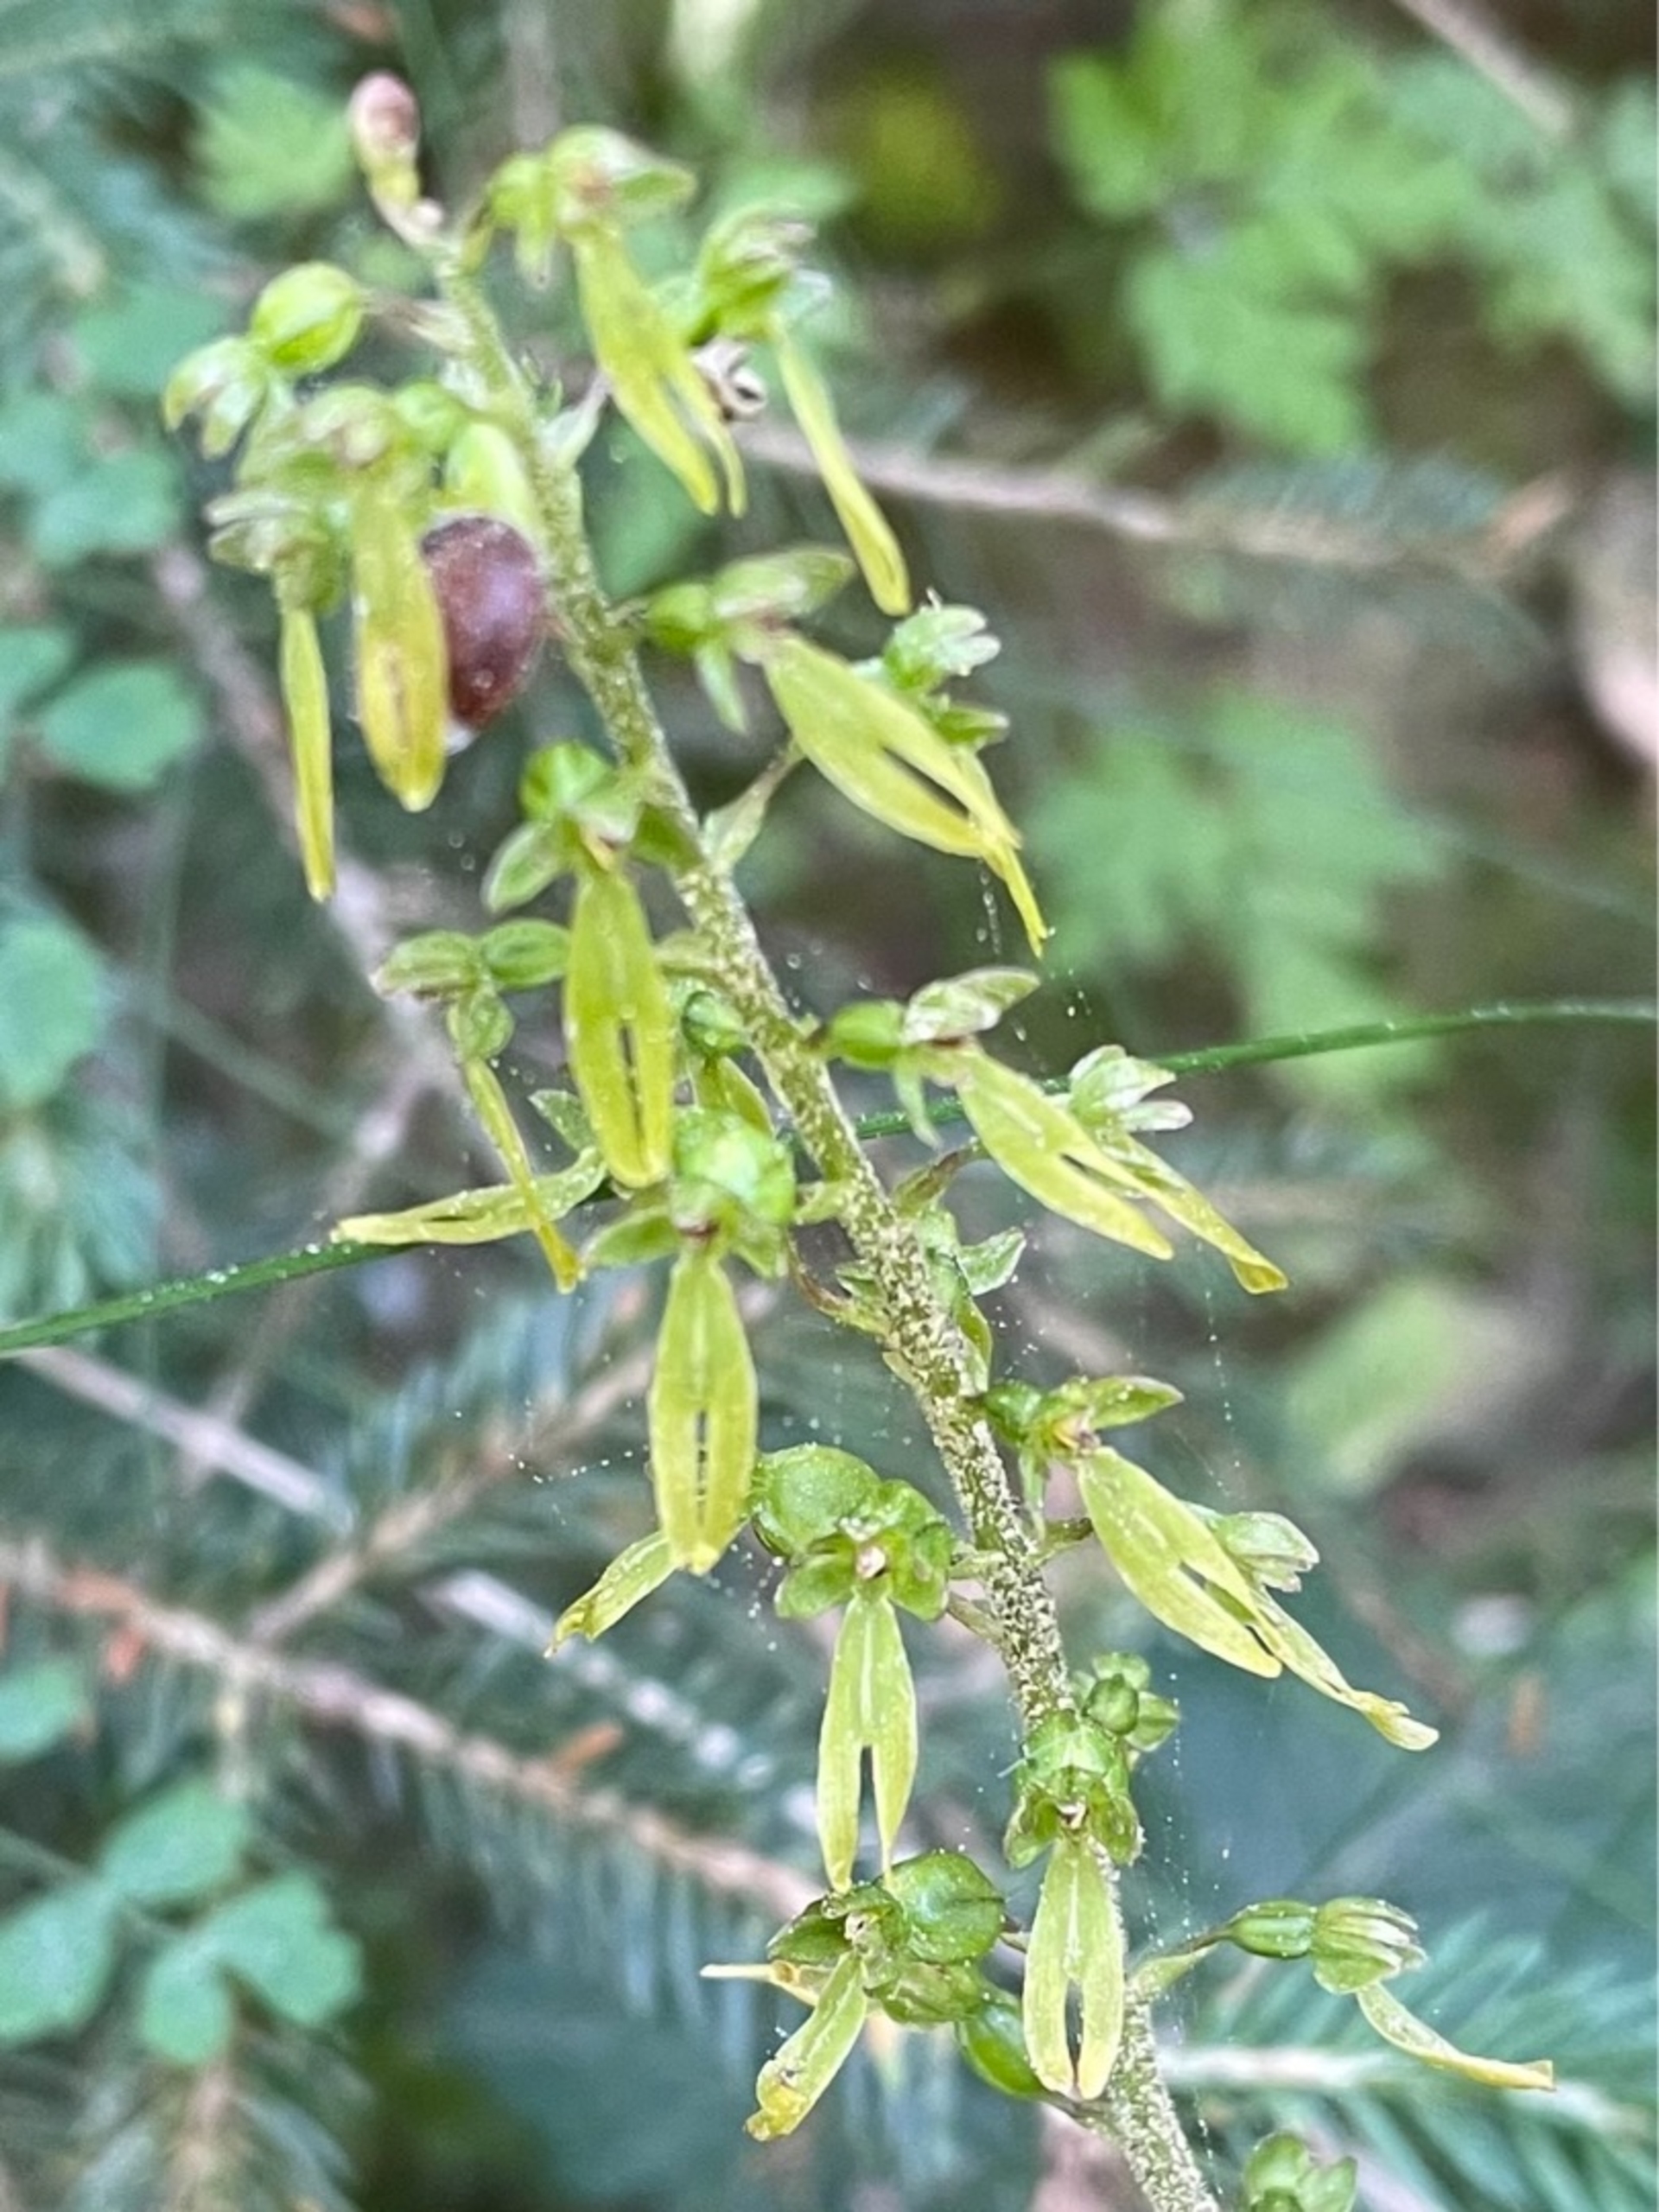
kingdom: Plantae
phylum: Tracheophyta
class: Liliopsida
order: Asparagales
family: Orchidaceae
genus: Neottia
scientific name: Neottia ovata
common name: Ægbladet fliglæbe
